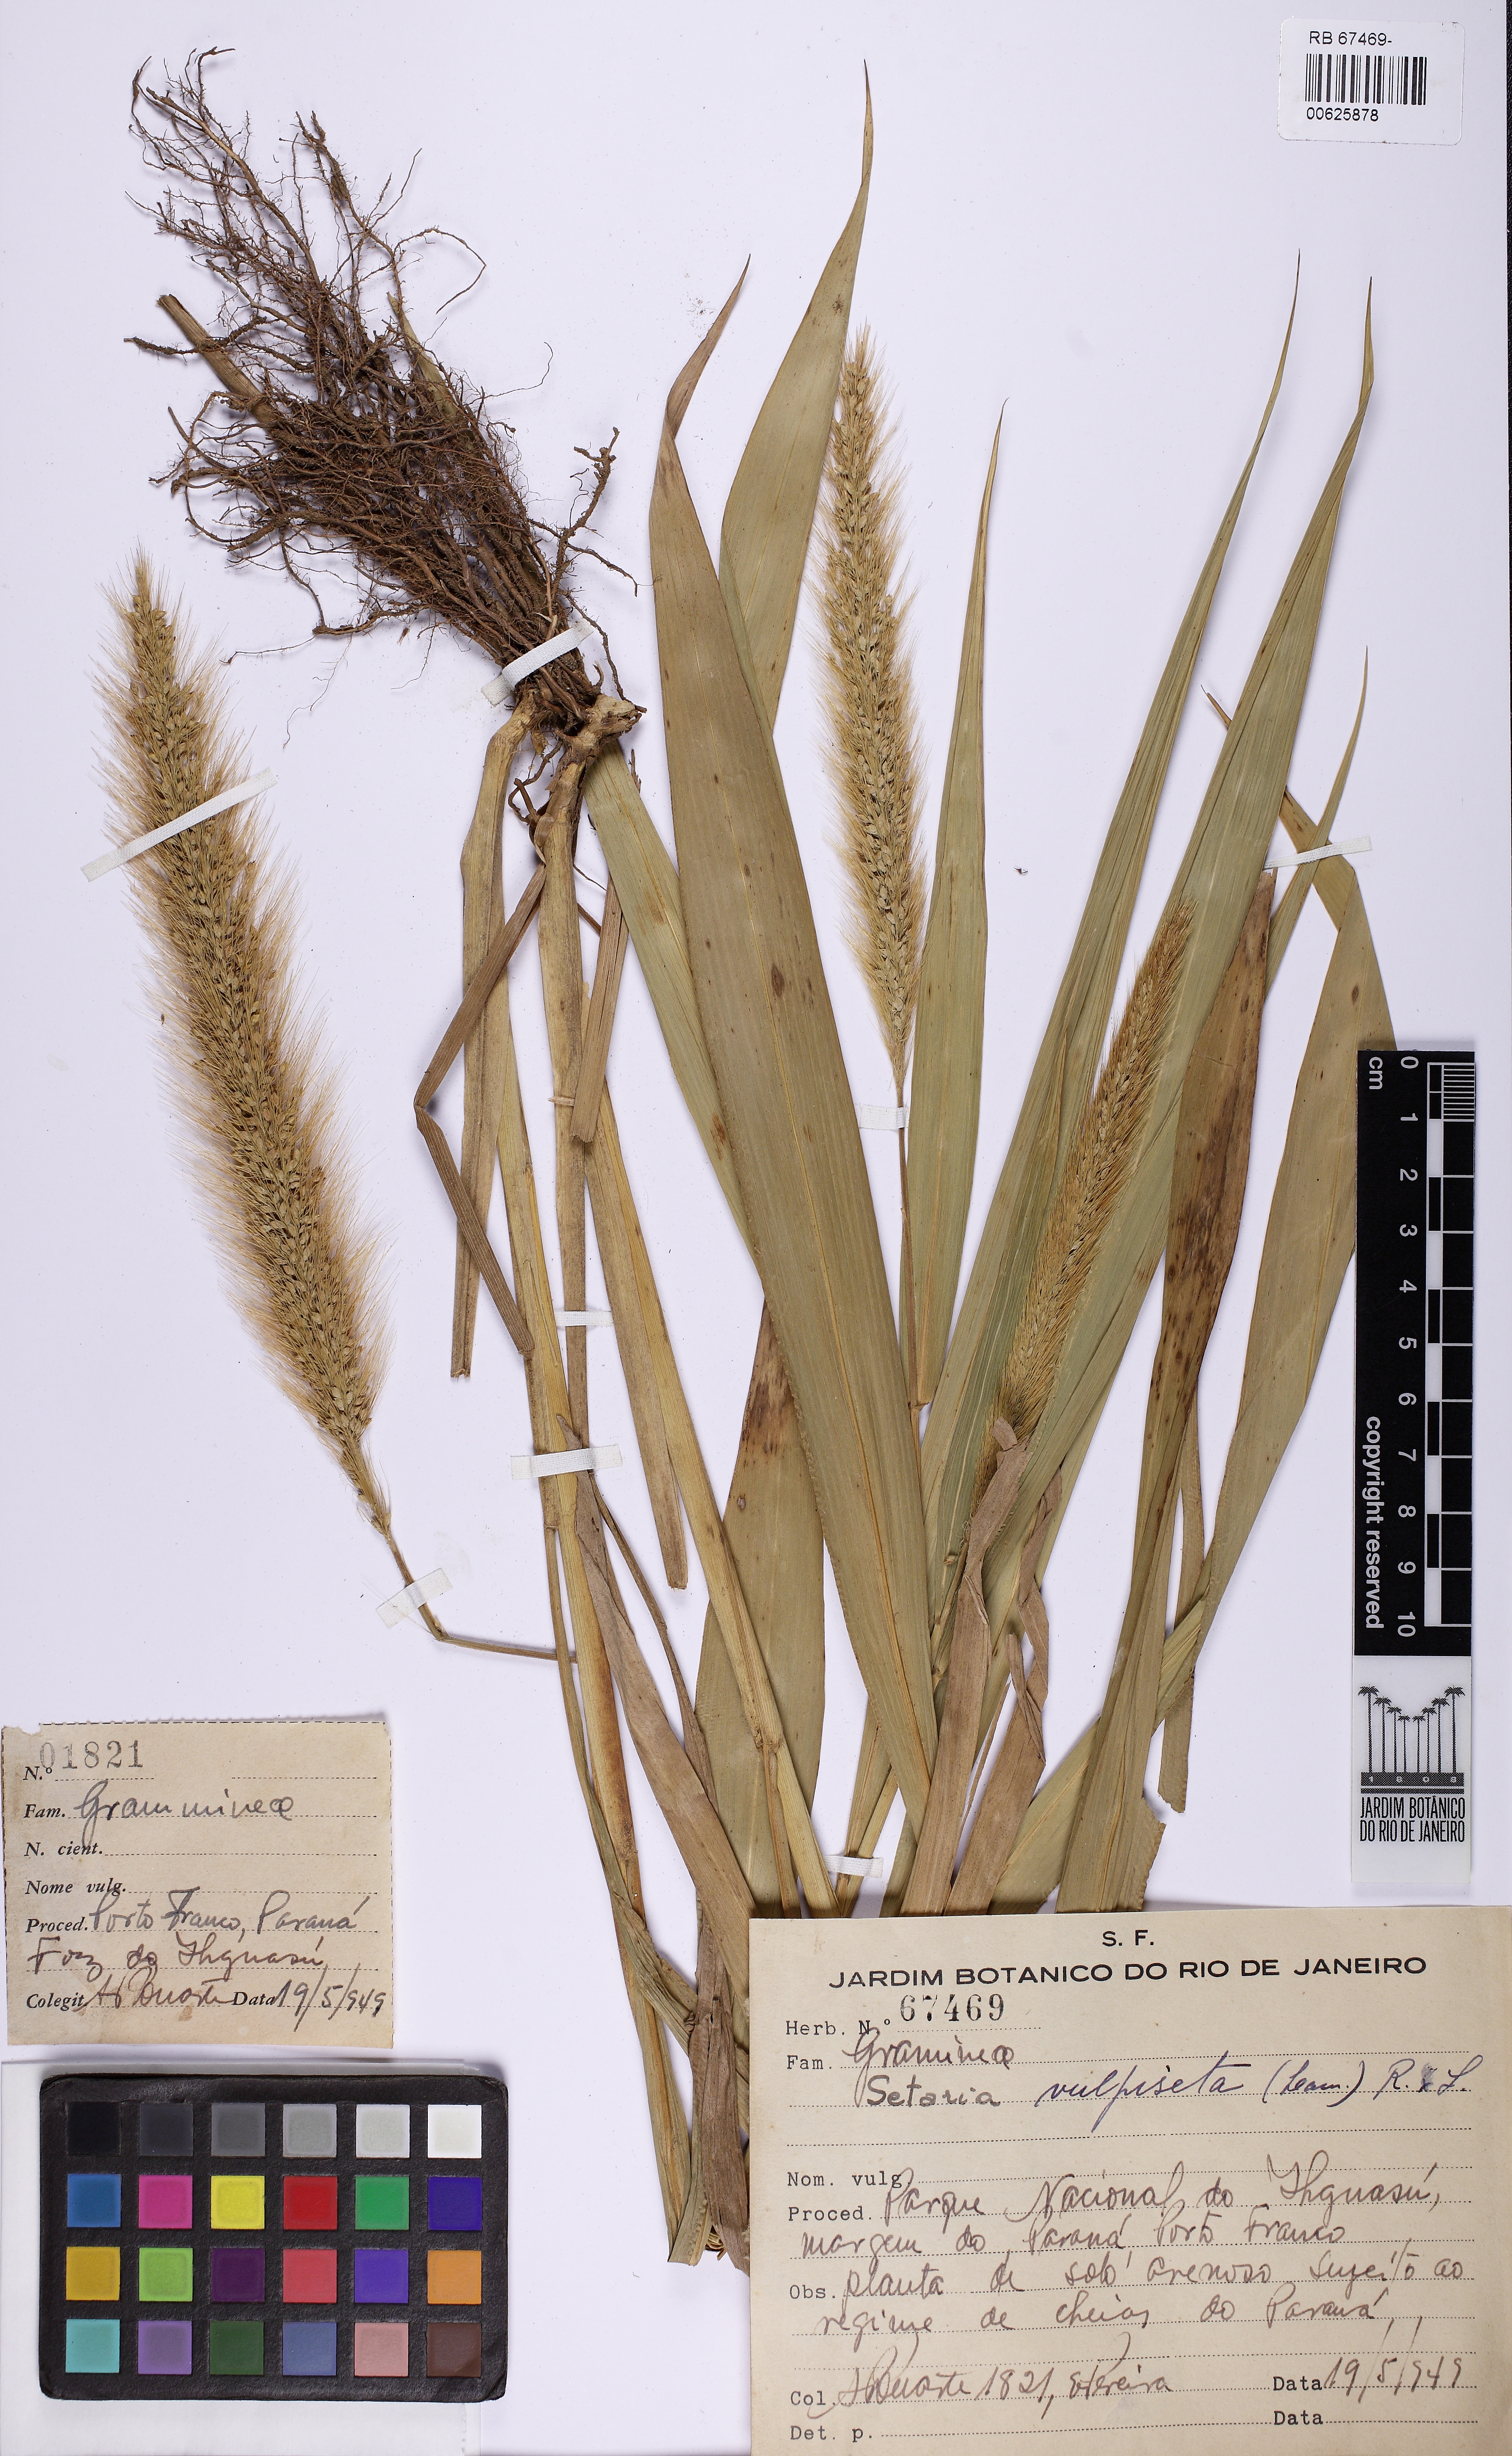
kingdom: Plantae
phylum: Tracheophyta
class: Liliopsida
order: Poales
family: Poaceae
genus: Setaria
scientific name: Setaria vulpiseta
